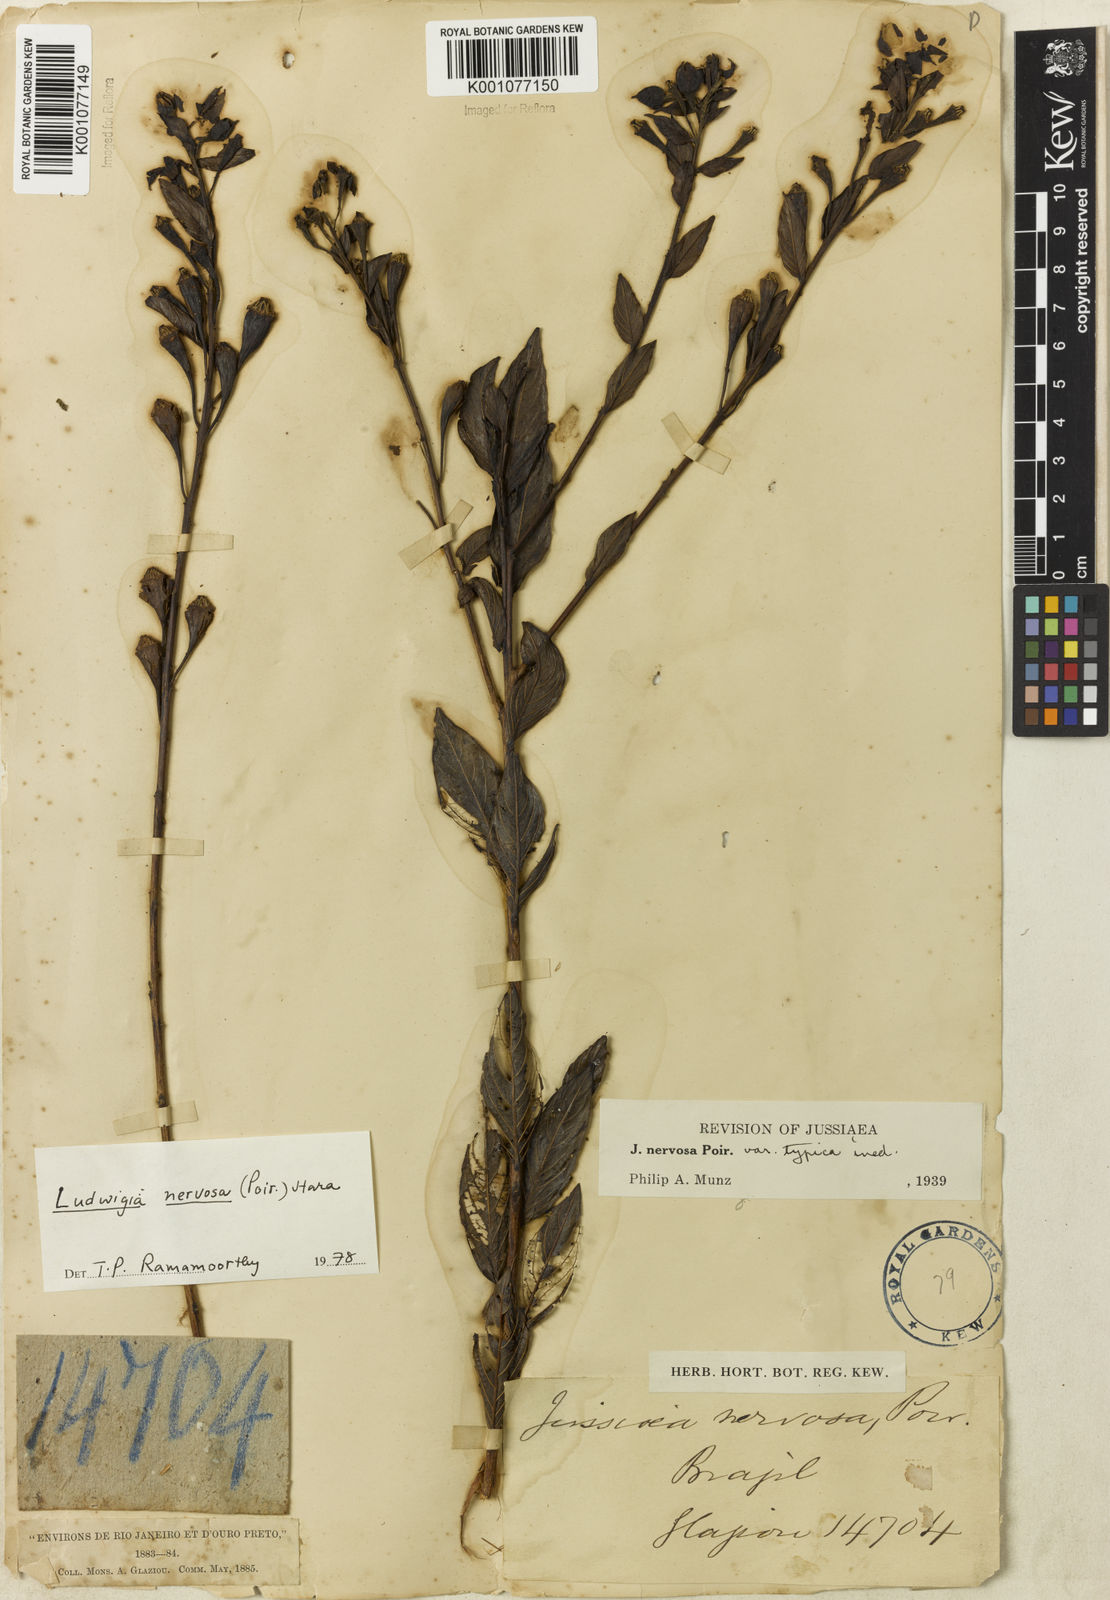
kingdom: Plantae
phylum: Tracheophyta
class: Magnoliopsida
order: Myrtales
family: Onagraceae
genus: Ludwigia
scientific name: Ludwigia nervosa
